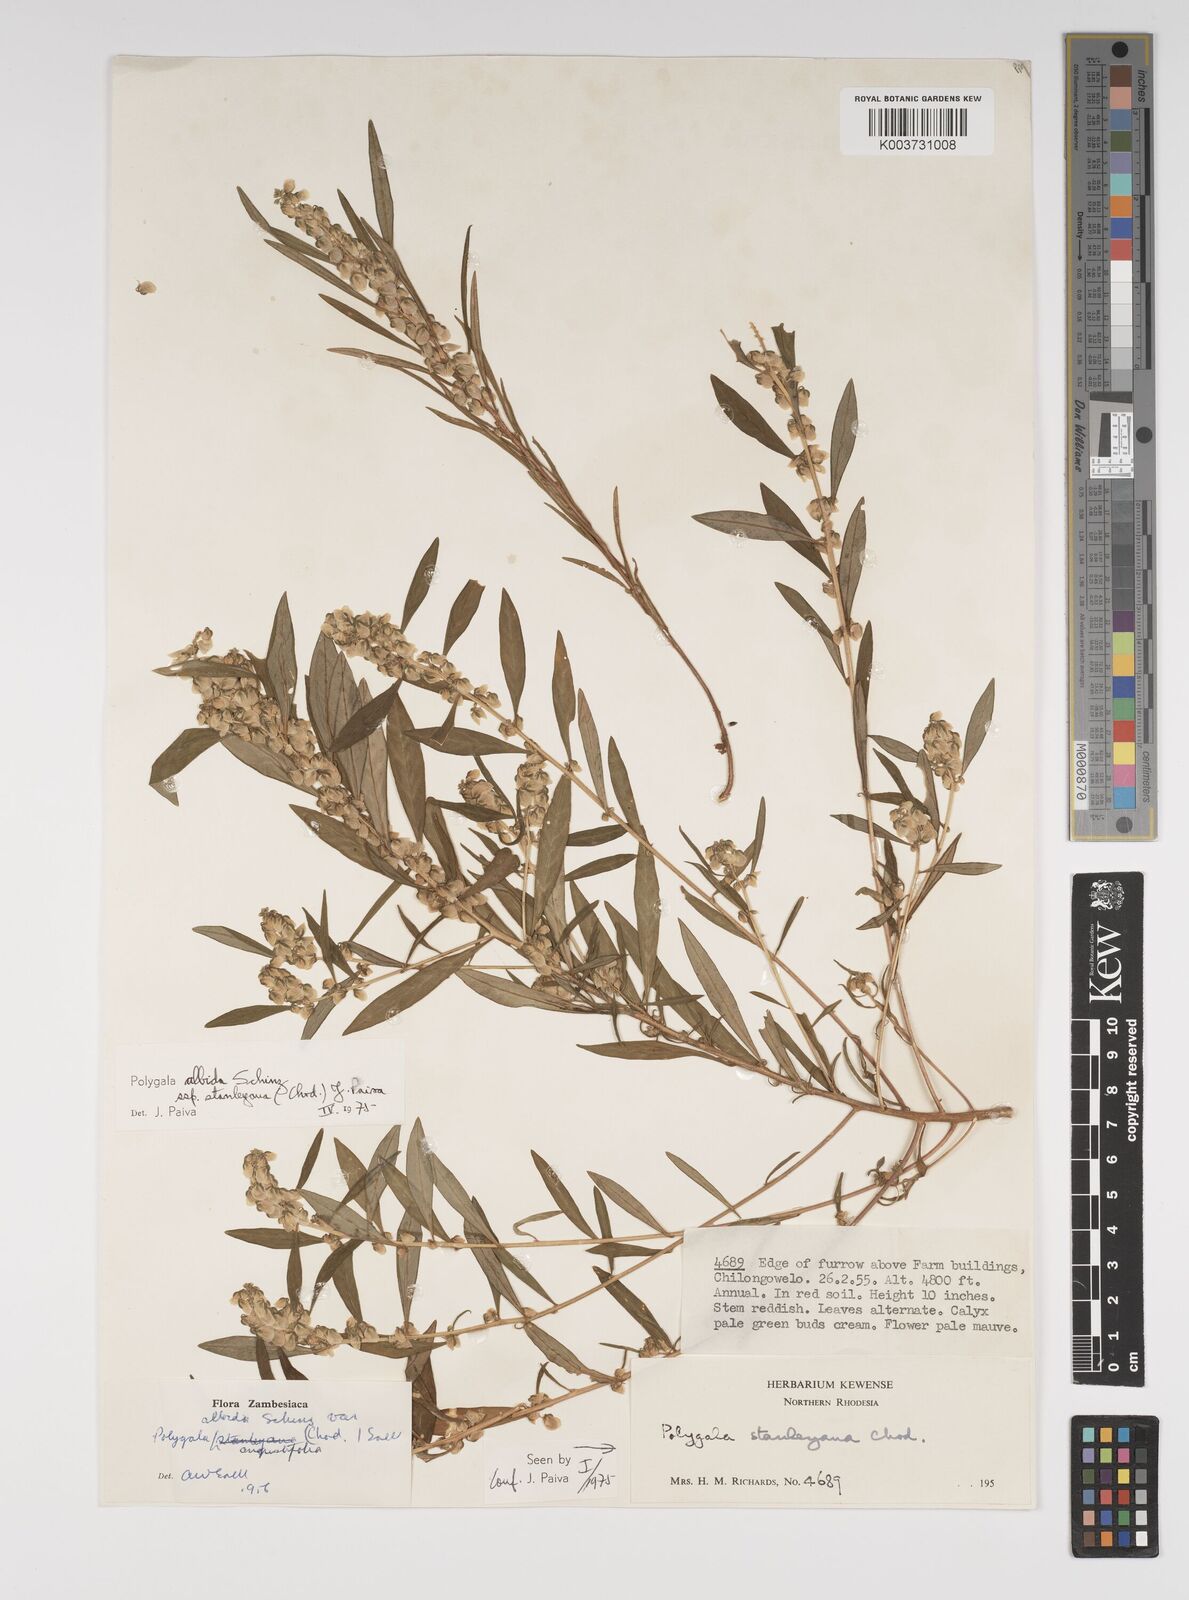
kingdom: Plantae
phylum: Tracheophyta
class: Magnoliopsida
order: Fabales
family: Polygalaceae
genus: Polygala
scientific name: Polygala albida
